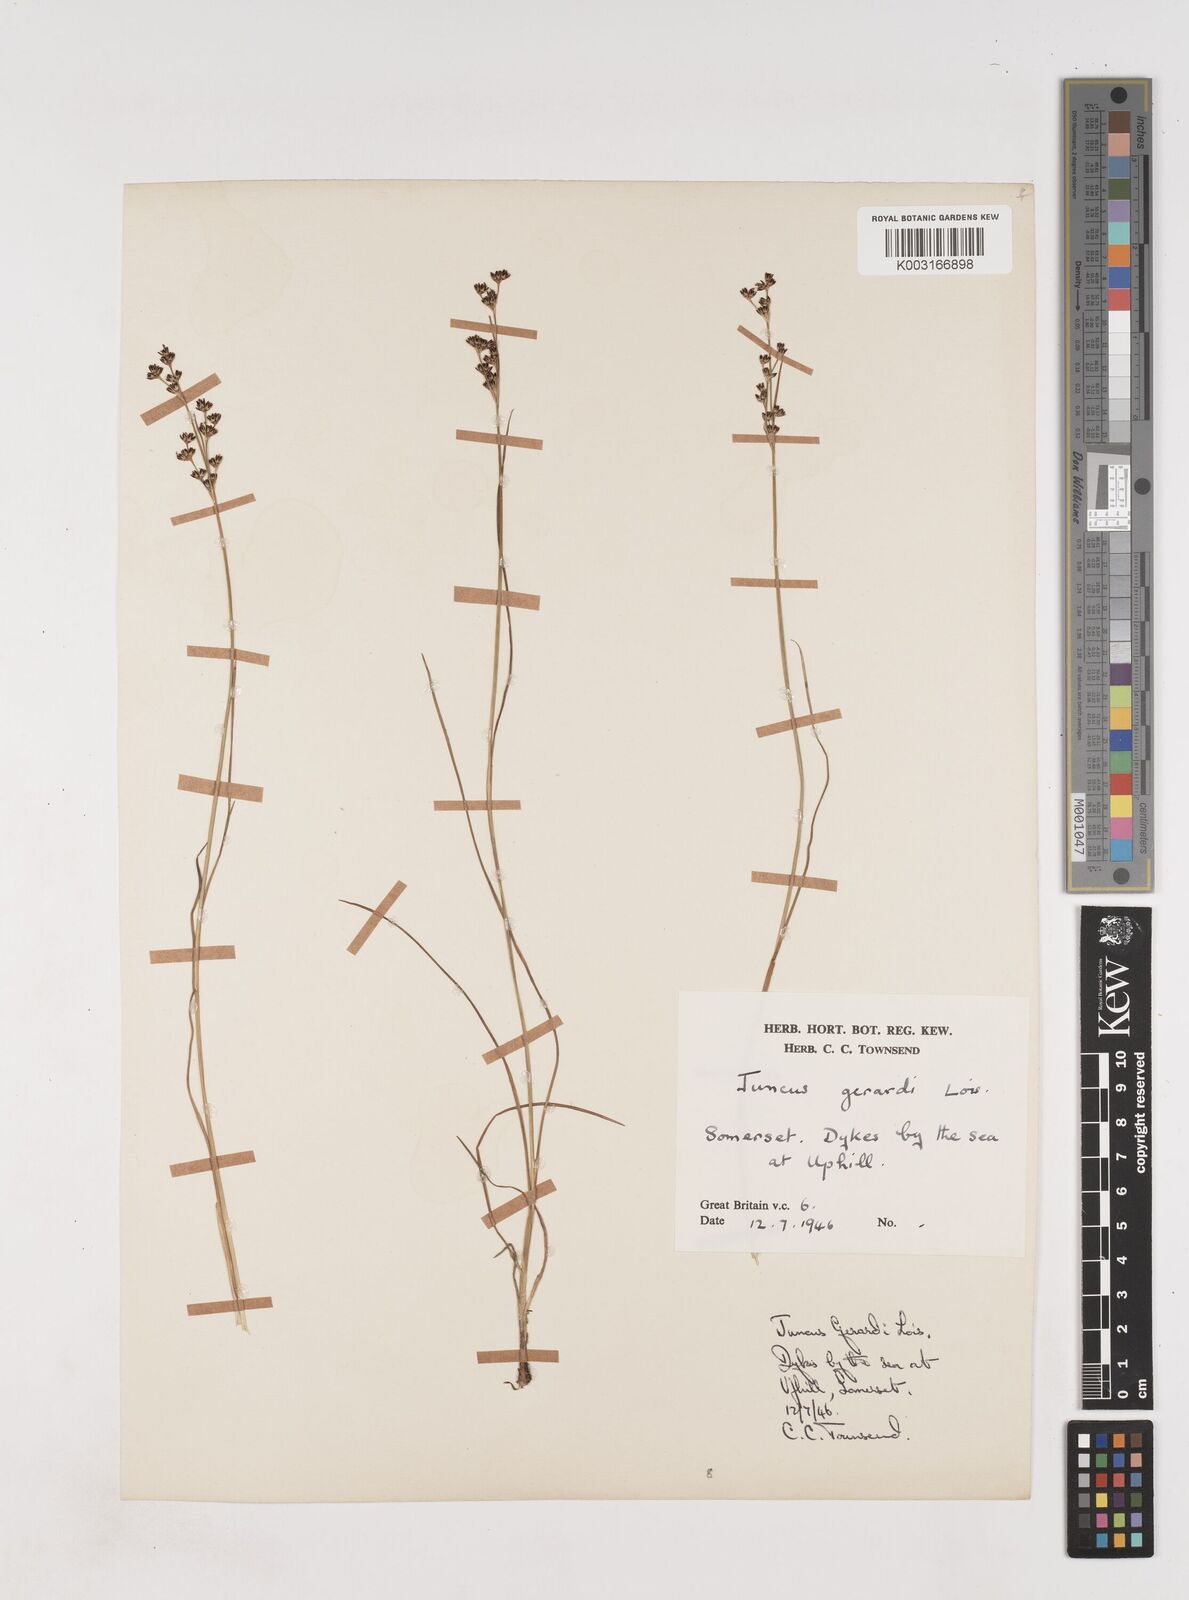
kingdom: Plantae
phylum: Tracheophyta
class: Liliopsida
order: Poales
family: Juncaceae
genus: Juncus
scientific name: Juncus gerardi
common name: Saltmarsh rush
